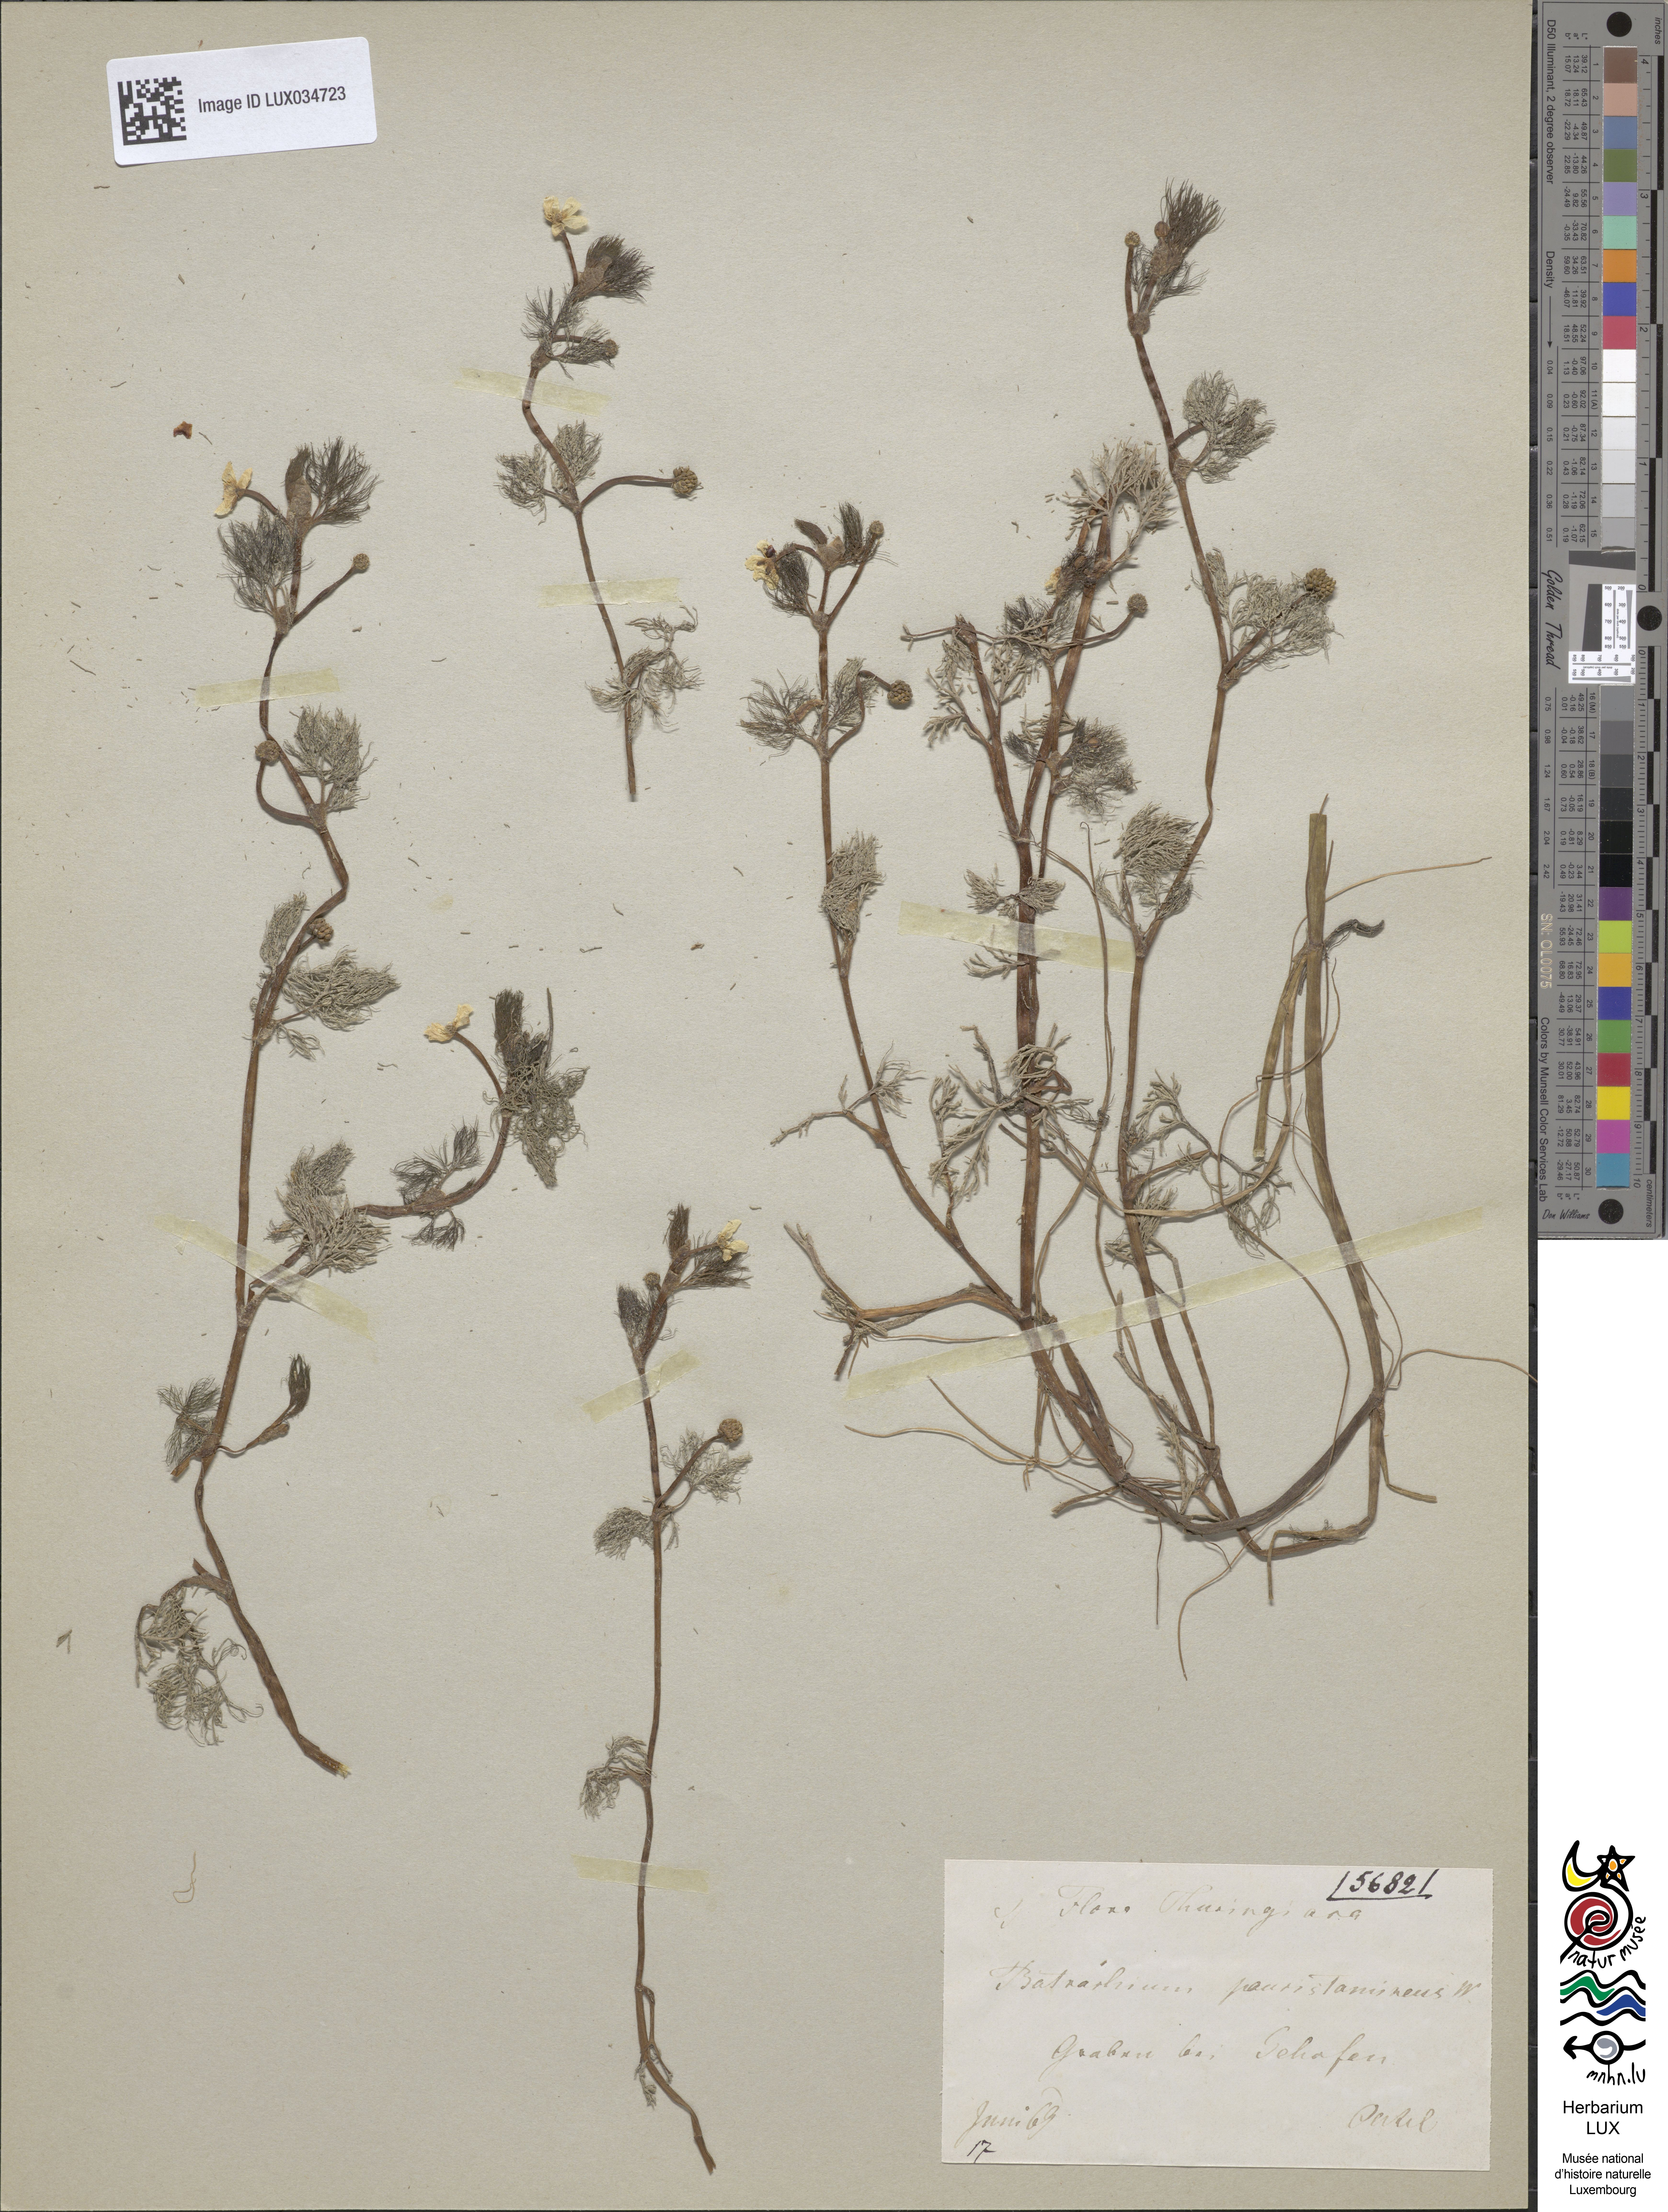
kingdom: Plantae
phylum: Tracheophyta
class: Magnoliopsida
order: Ranunculales
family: Ranunculaceae
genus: Ranunculus
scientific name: Ranunculus
